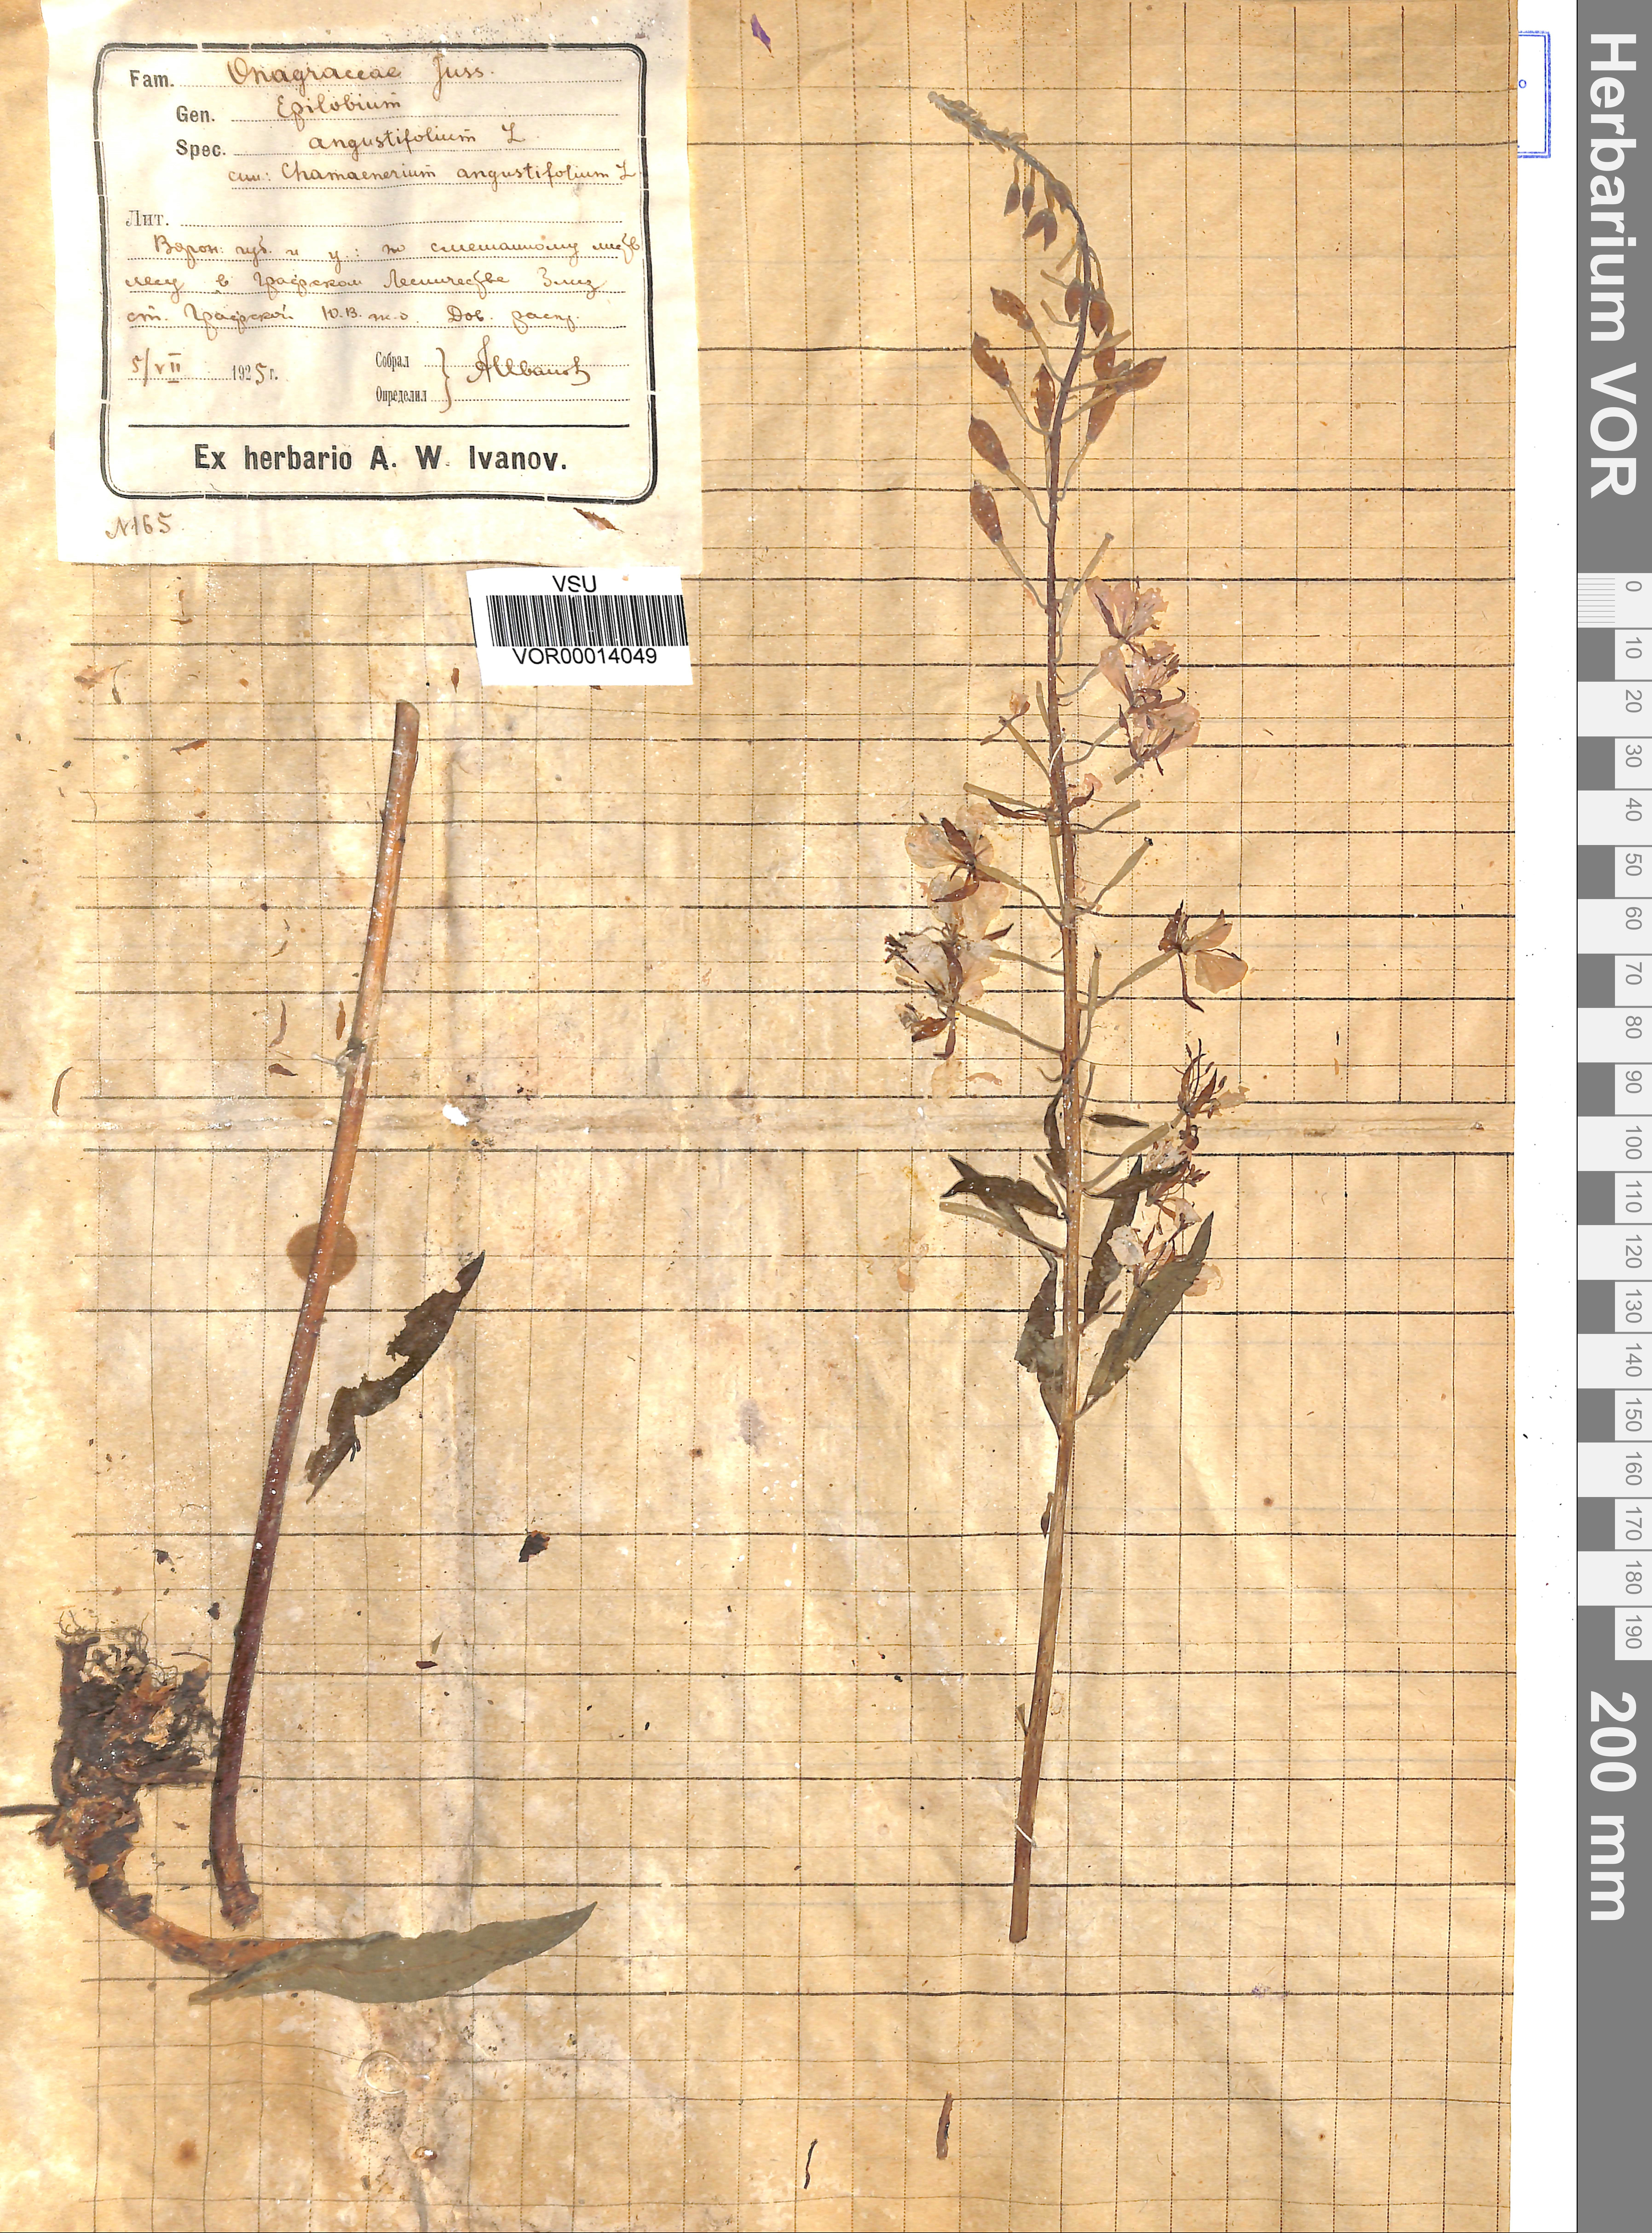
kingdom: Plantae
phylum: Tracheophyta
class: Magnoliopsida
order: Myrtales
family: Onagraceae
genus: Chamaenerion
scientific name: Chamaenerion angustifolium
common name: Fireweed
